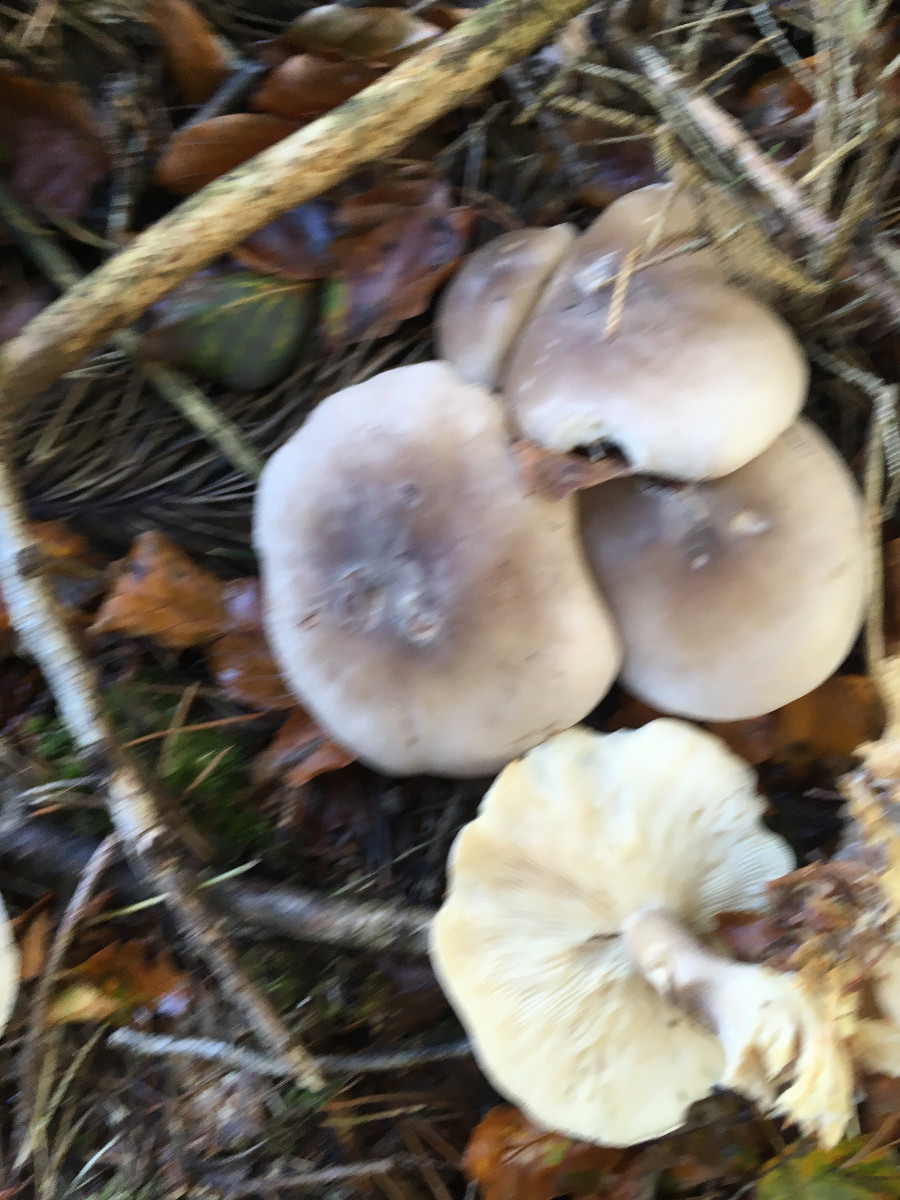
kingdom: Fungi
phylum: Basidiomycota
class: Agaricomycetes
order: Agaricales
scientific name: Agaricales
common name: champignonordenen
